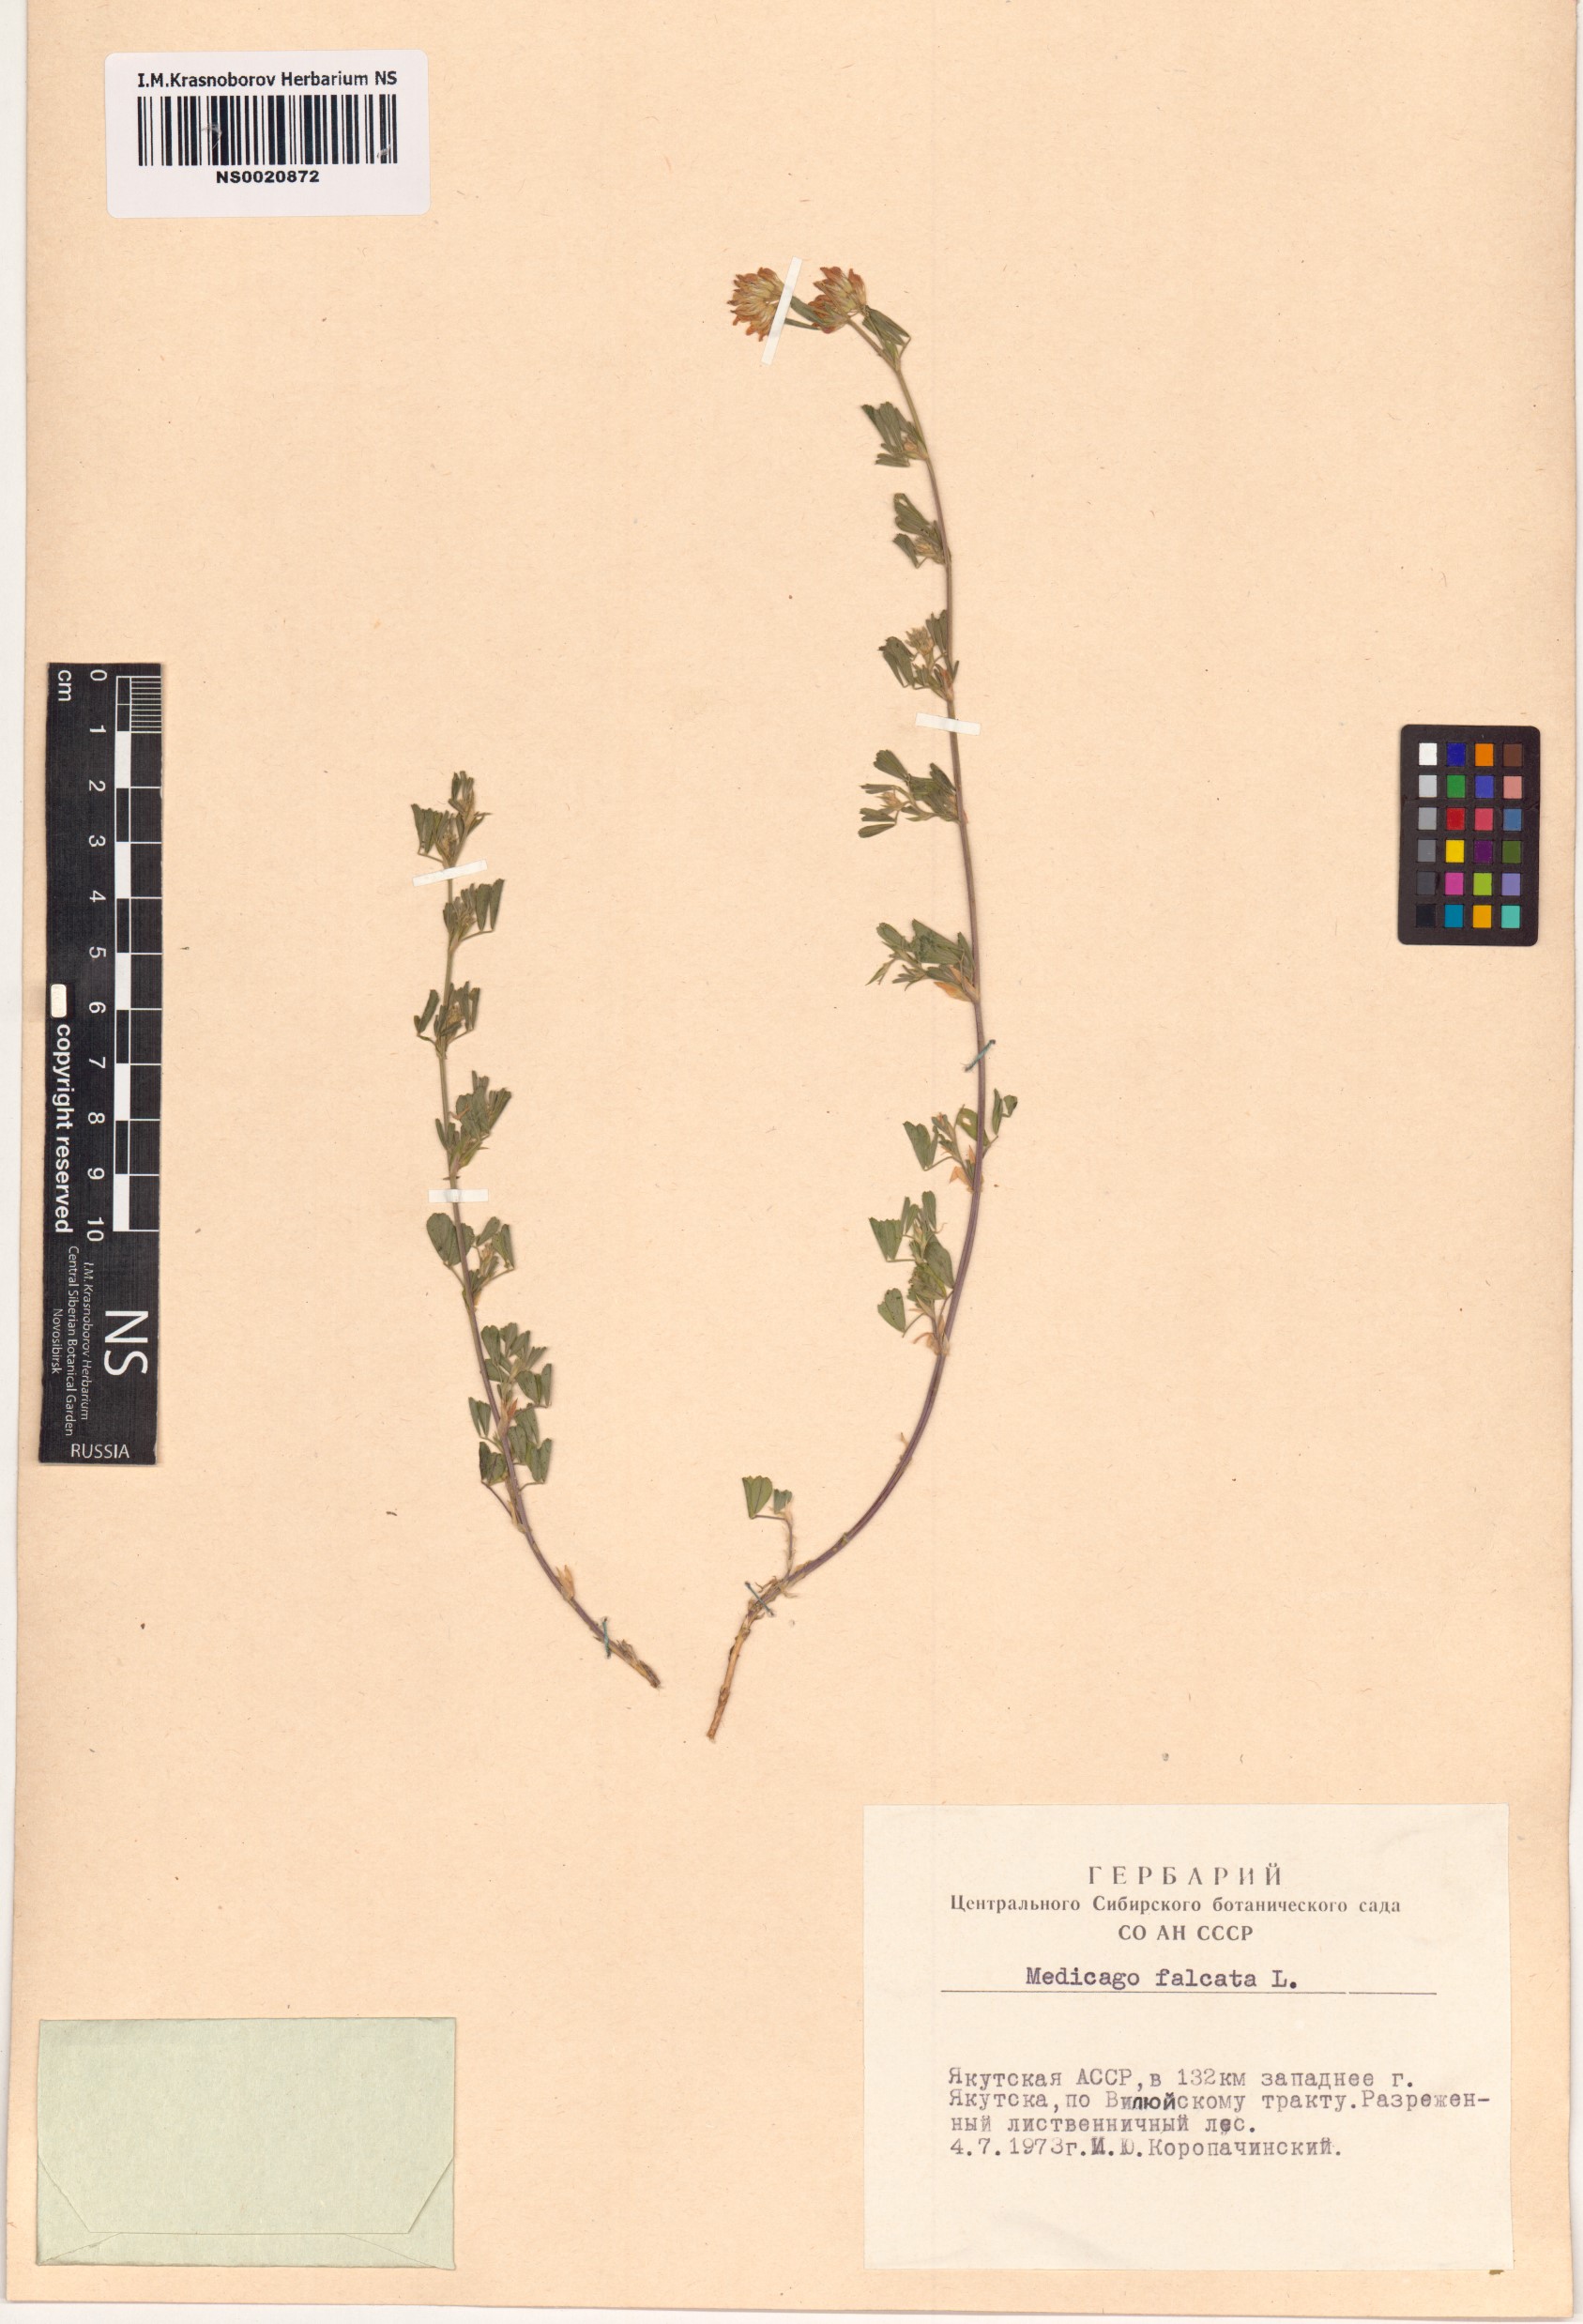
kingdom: Plantae
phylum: Tracheophyta
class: Magnoliopsida
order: Fabales
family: Fabaceae
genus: Medicago
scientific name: Medicago falcata
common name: Sickle medick
